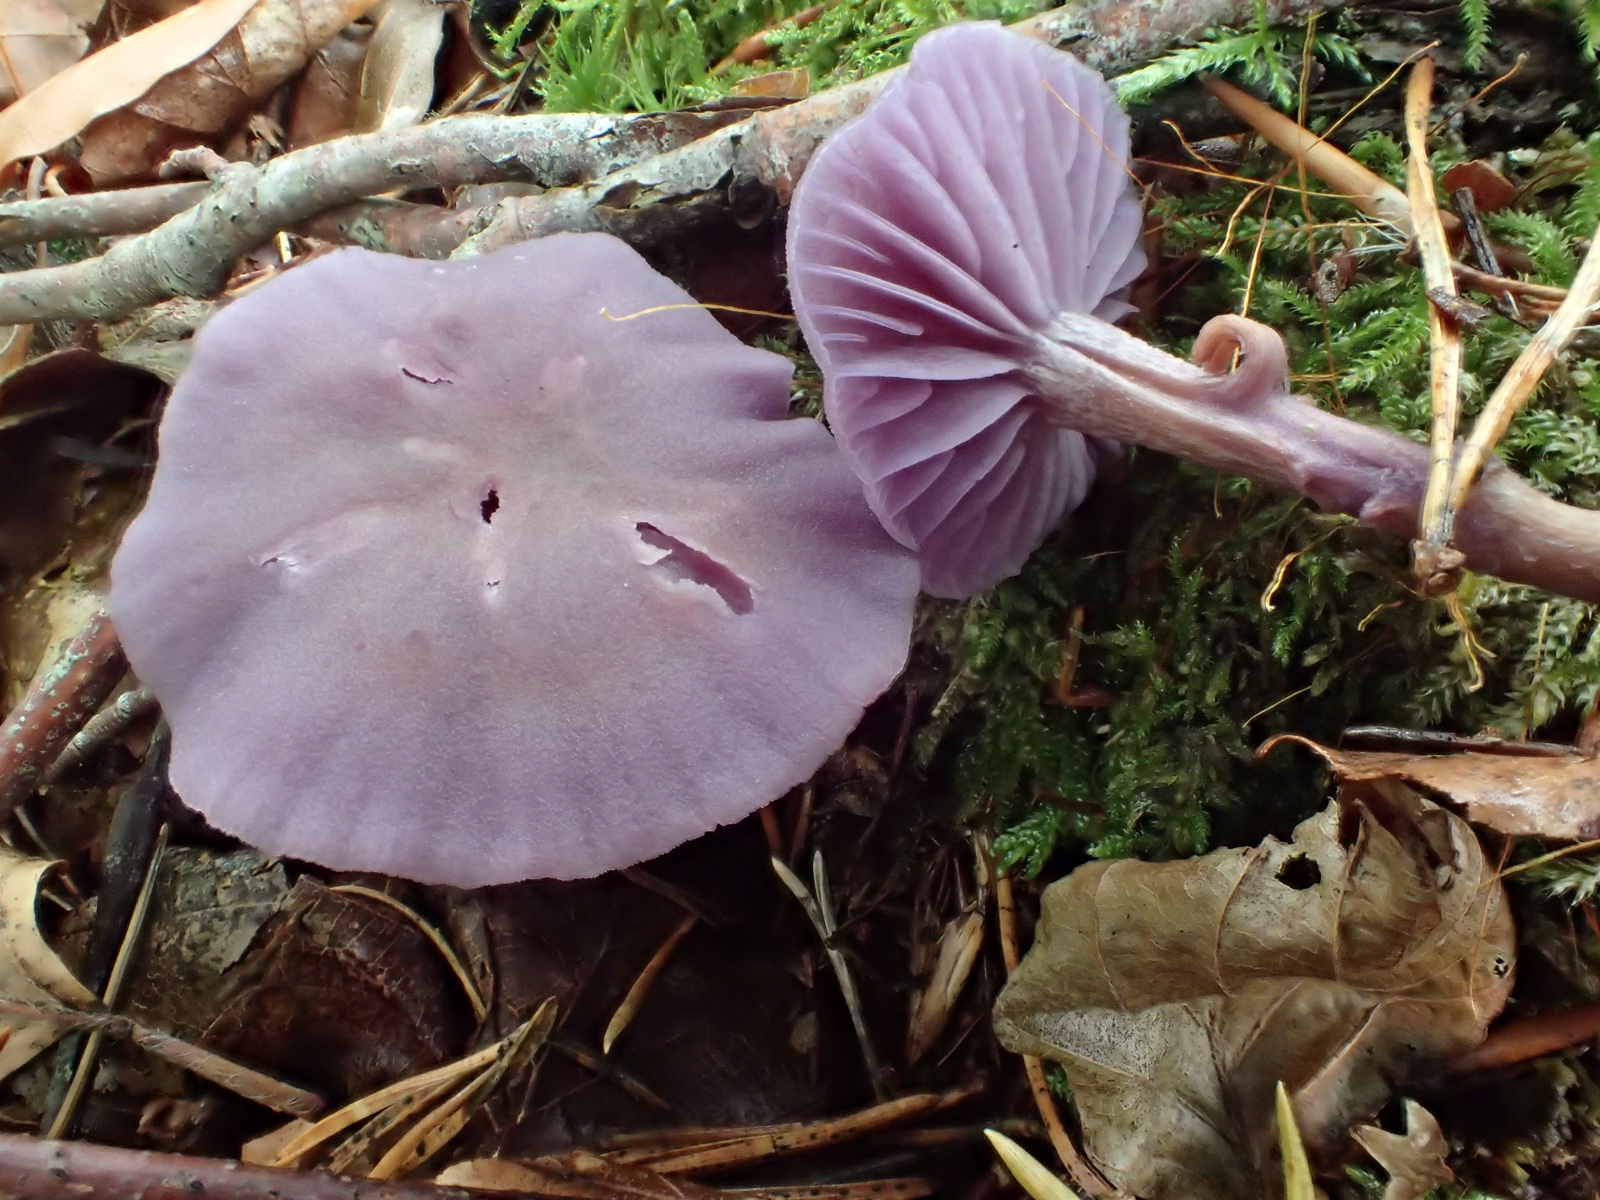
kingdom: Fungi
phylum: Basidiomycota
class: Agaricomycetes
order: Agaricales
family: Hydnangiaceae
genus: Laccaria
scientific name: Laccaria amethystina
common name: violet ametysthat
